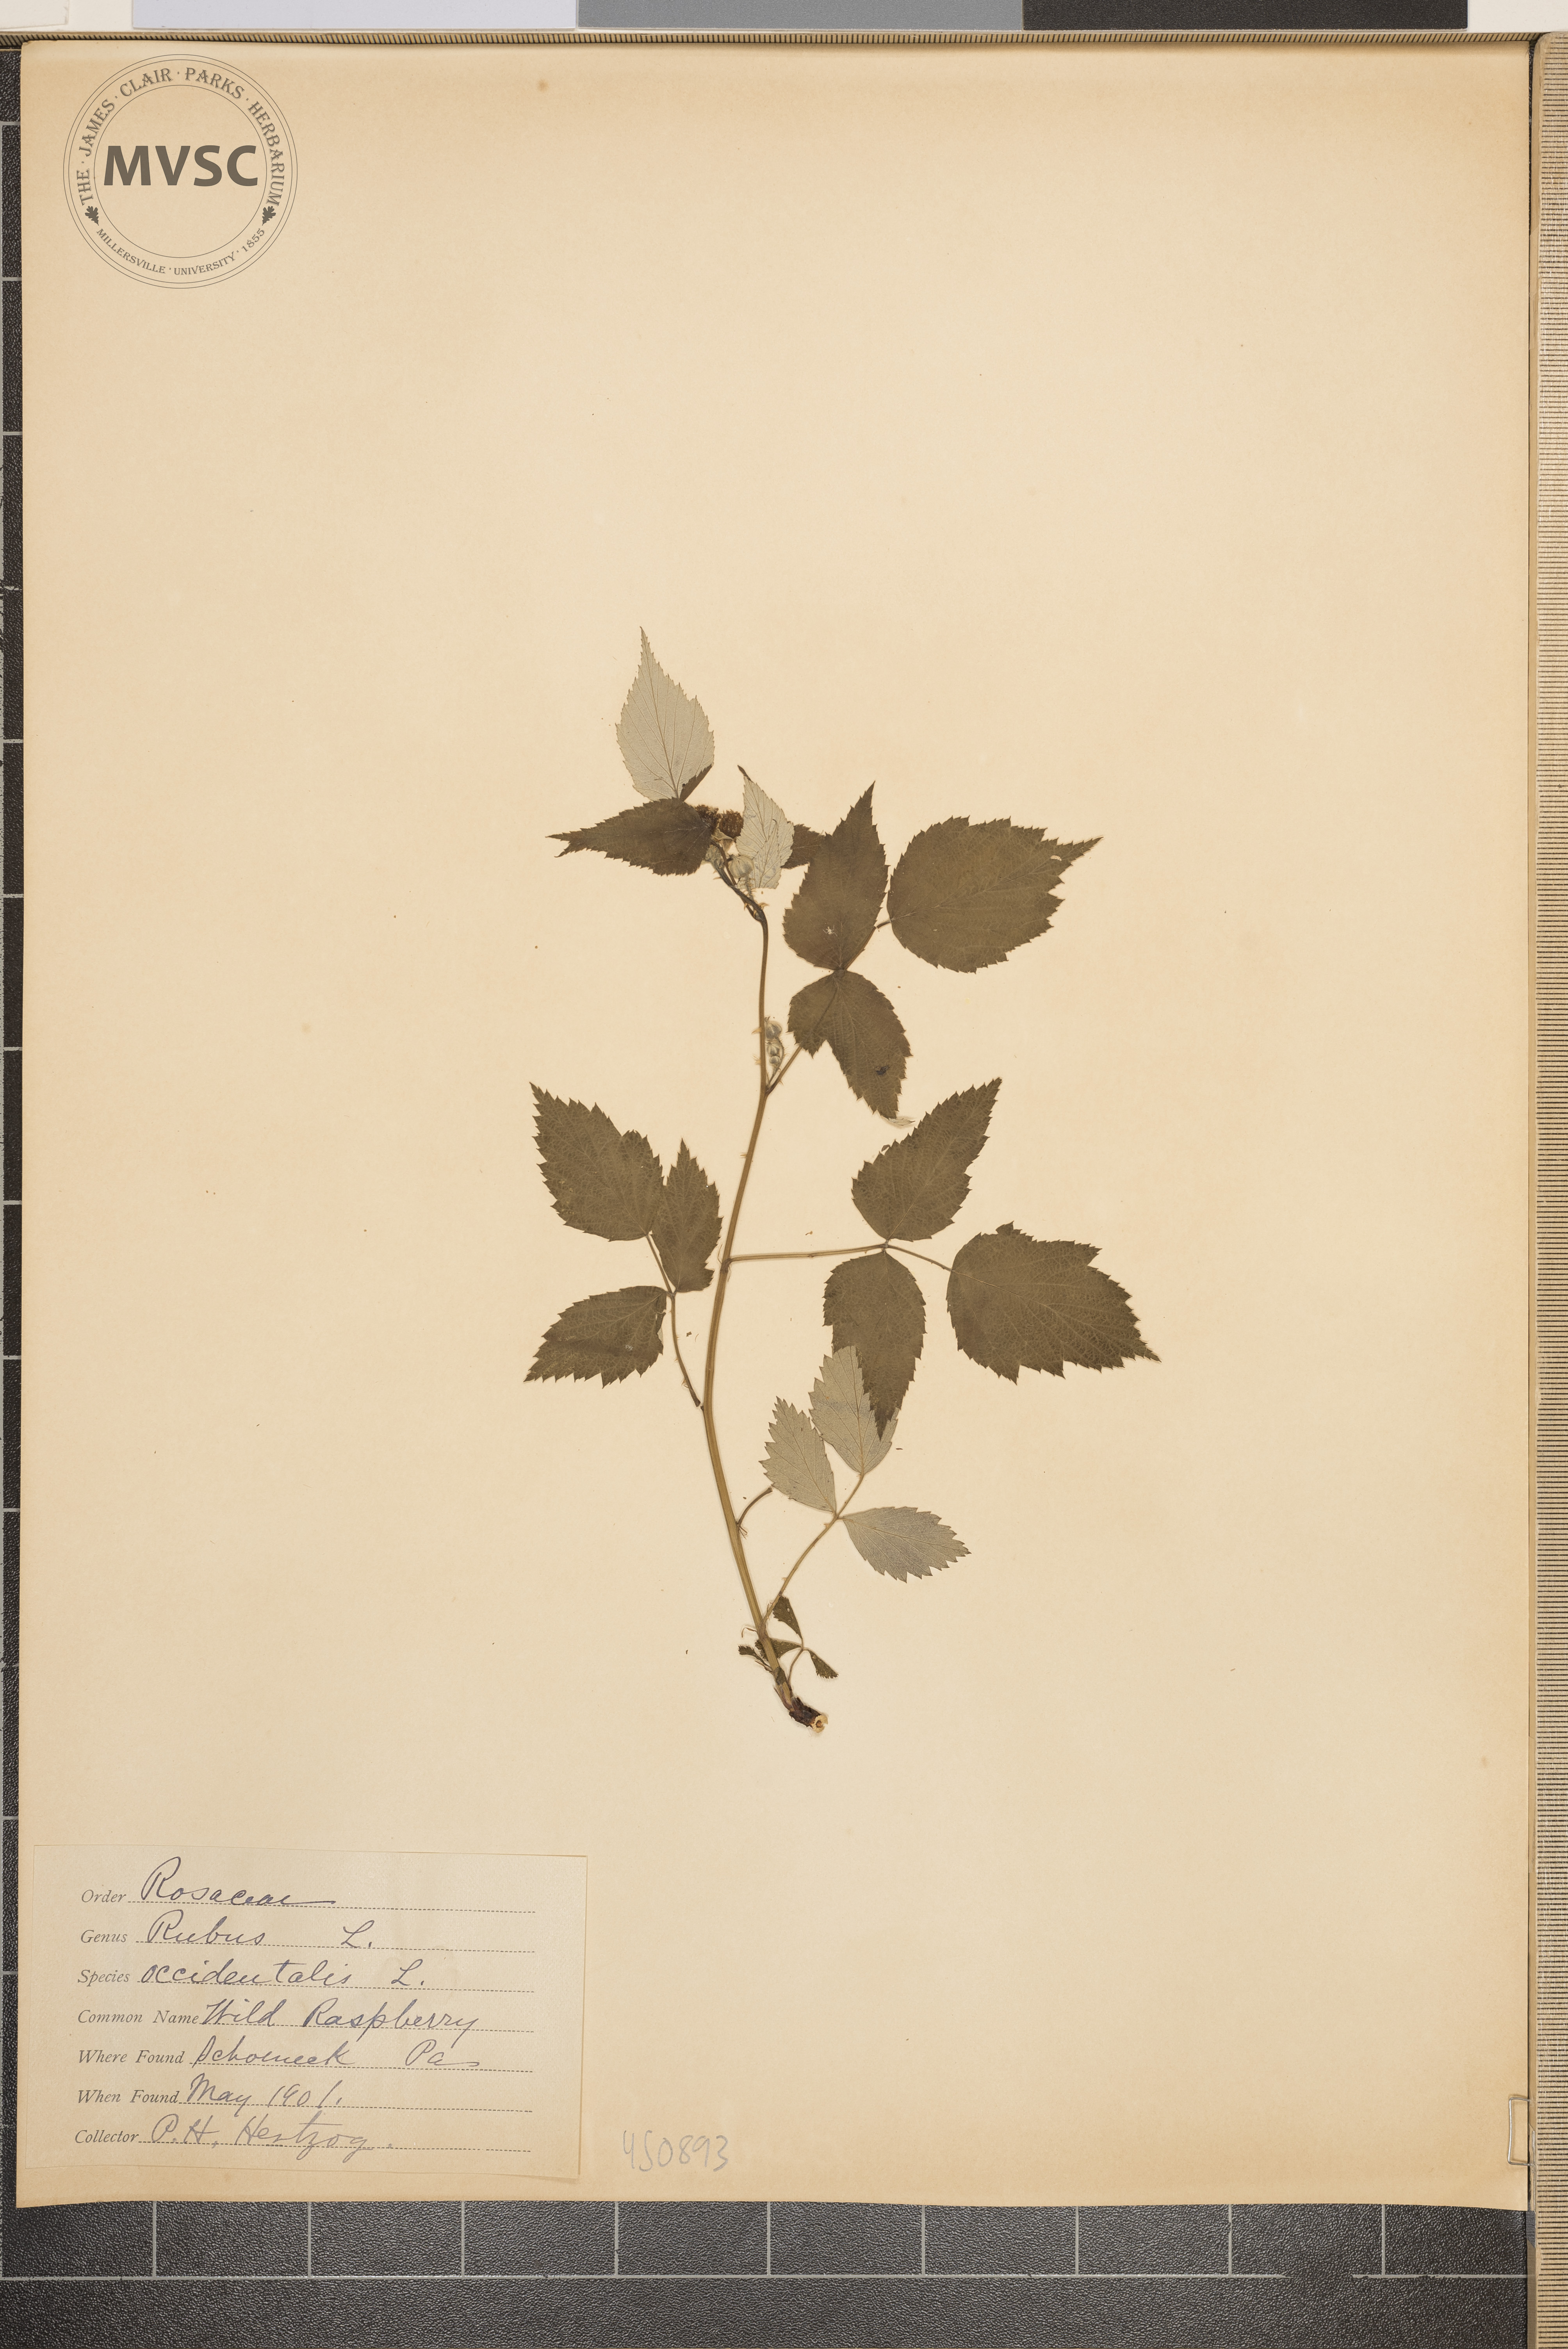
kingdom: Plantae
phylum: Tracheophyta
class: Magnoliopsida
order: Rosales
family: Rosaceae
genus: Rubus
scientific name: Rubus occidentalis
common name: Wild Raspberry
